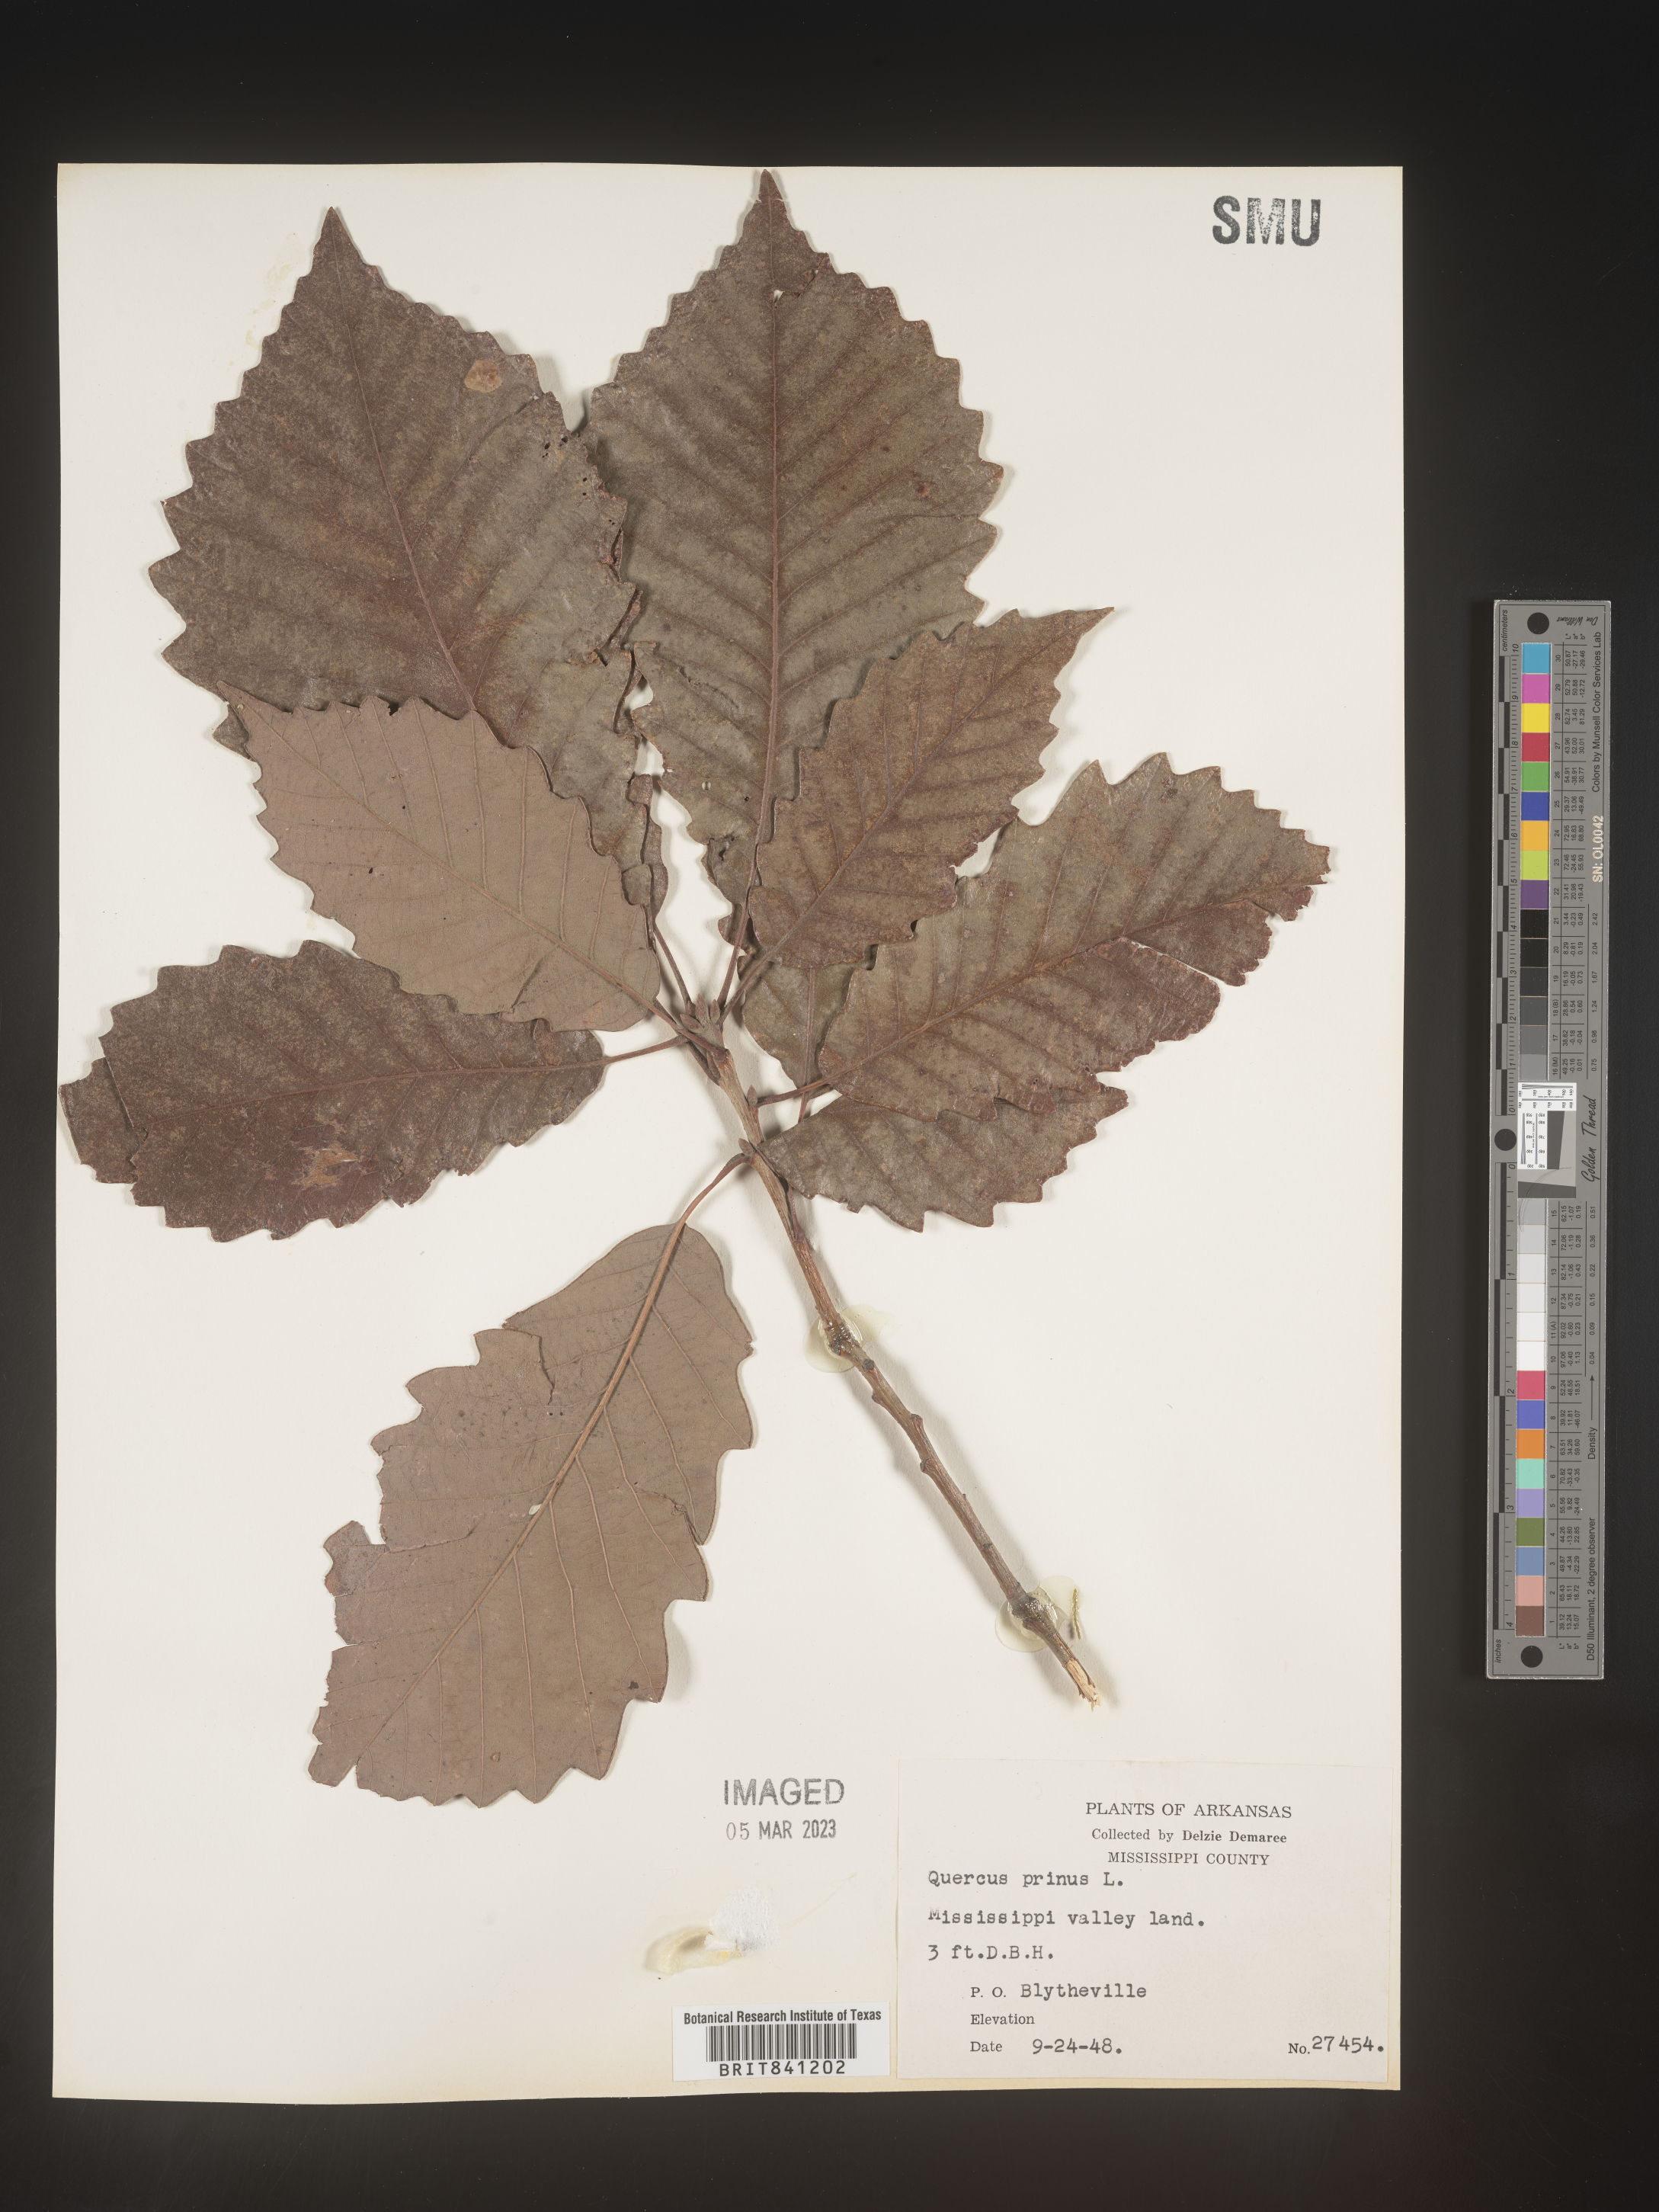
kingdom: Plantae
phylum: Tracheophyta
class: Magnoliopsida
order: Fagales
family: Fagaceae
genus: Quercus
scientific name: Quercus michauxii
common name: Swamp chestnut oak
